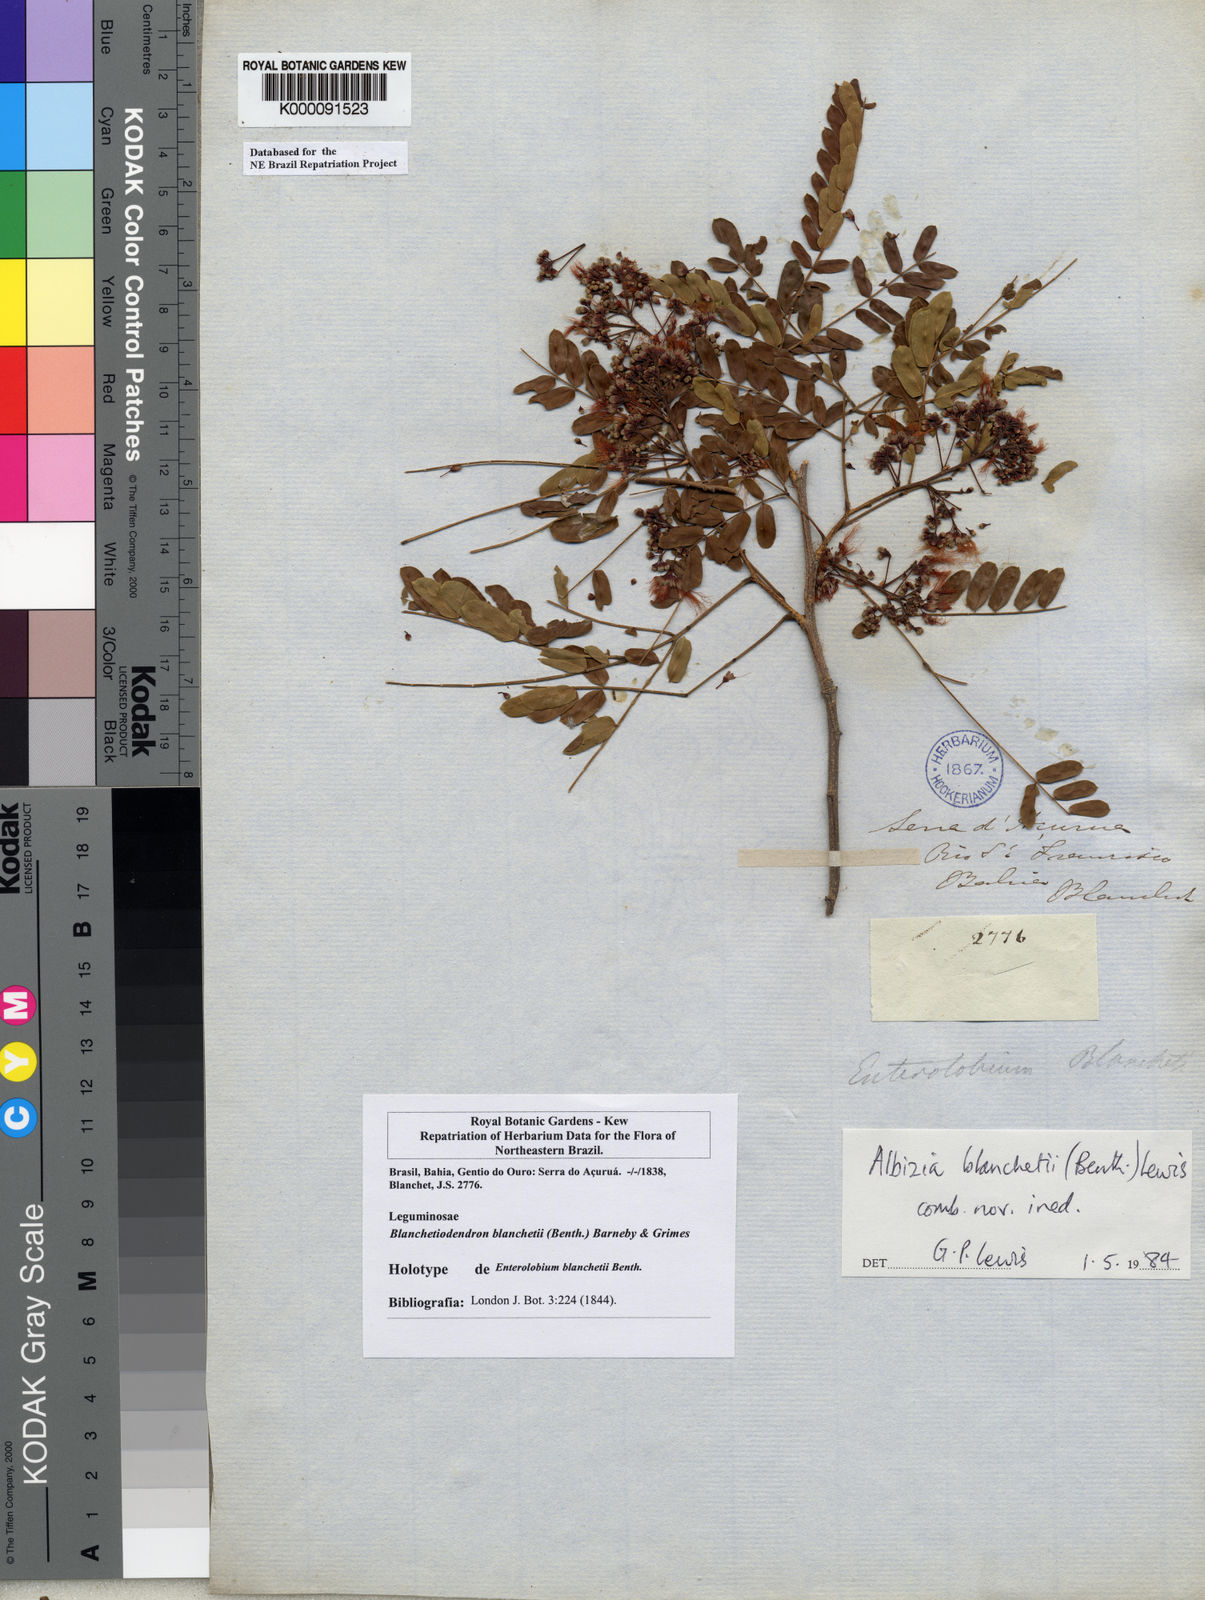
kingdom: Plantae
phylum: Tracheophyta
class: Magnoliopsida
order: Fabales
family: Fabaceae
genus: Blanchetiodendron
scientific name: Blanchetiodendron blanchetii
